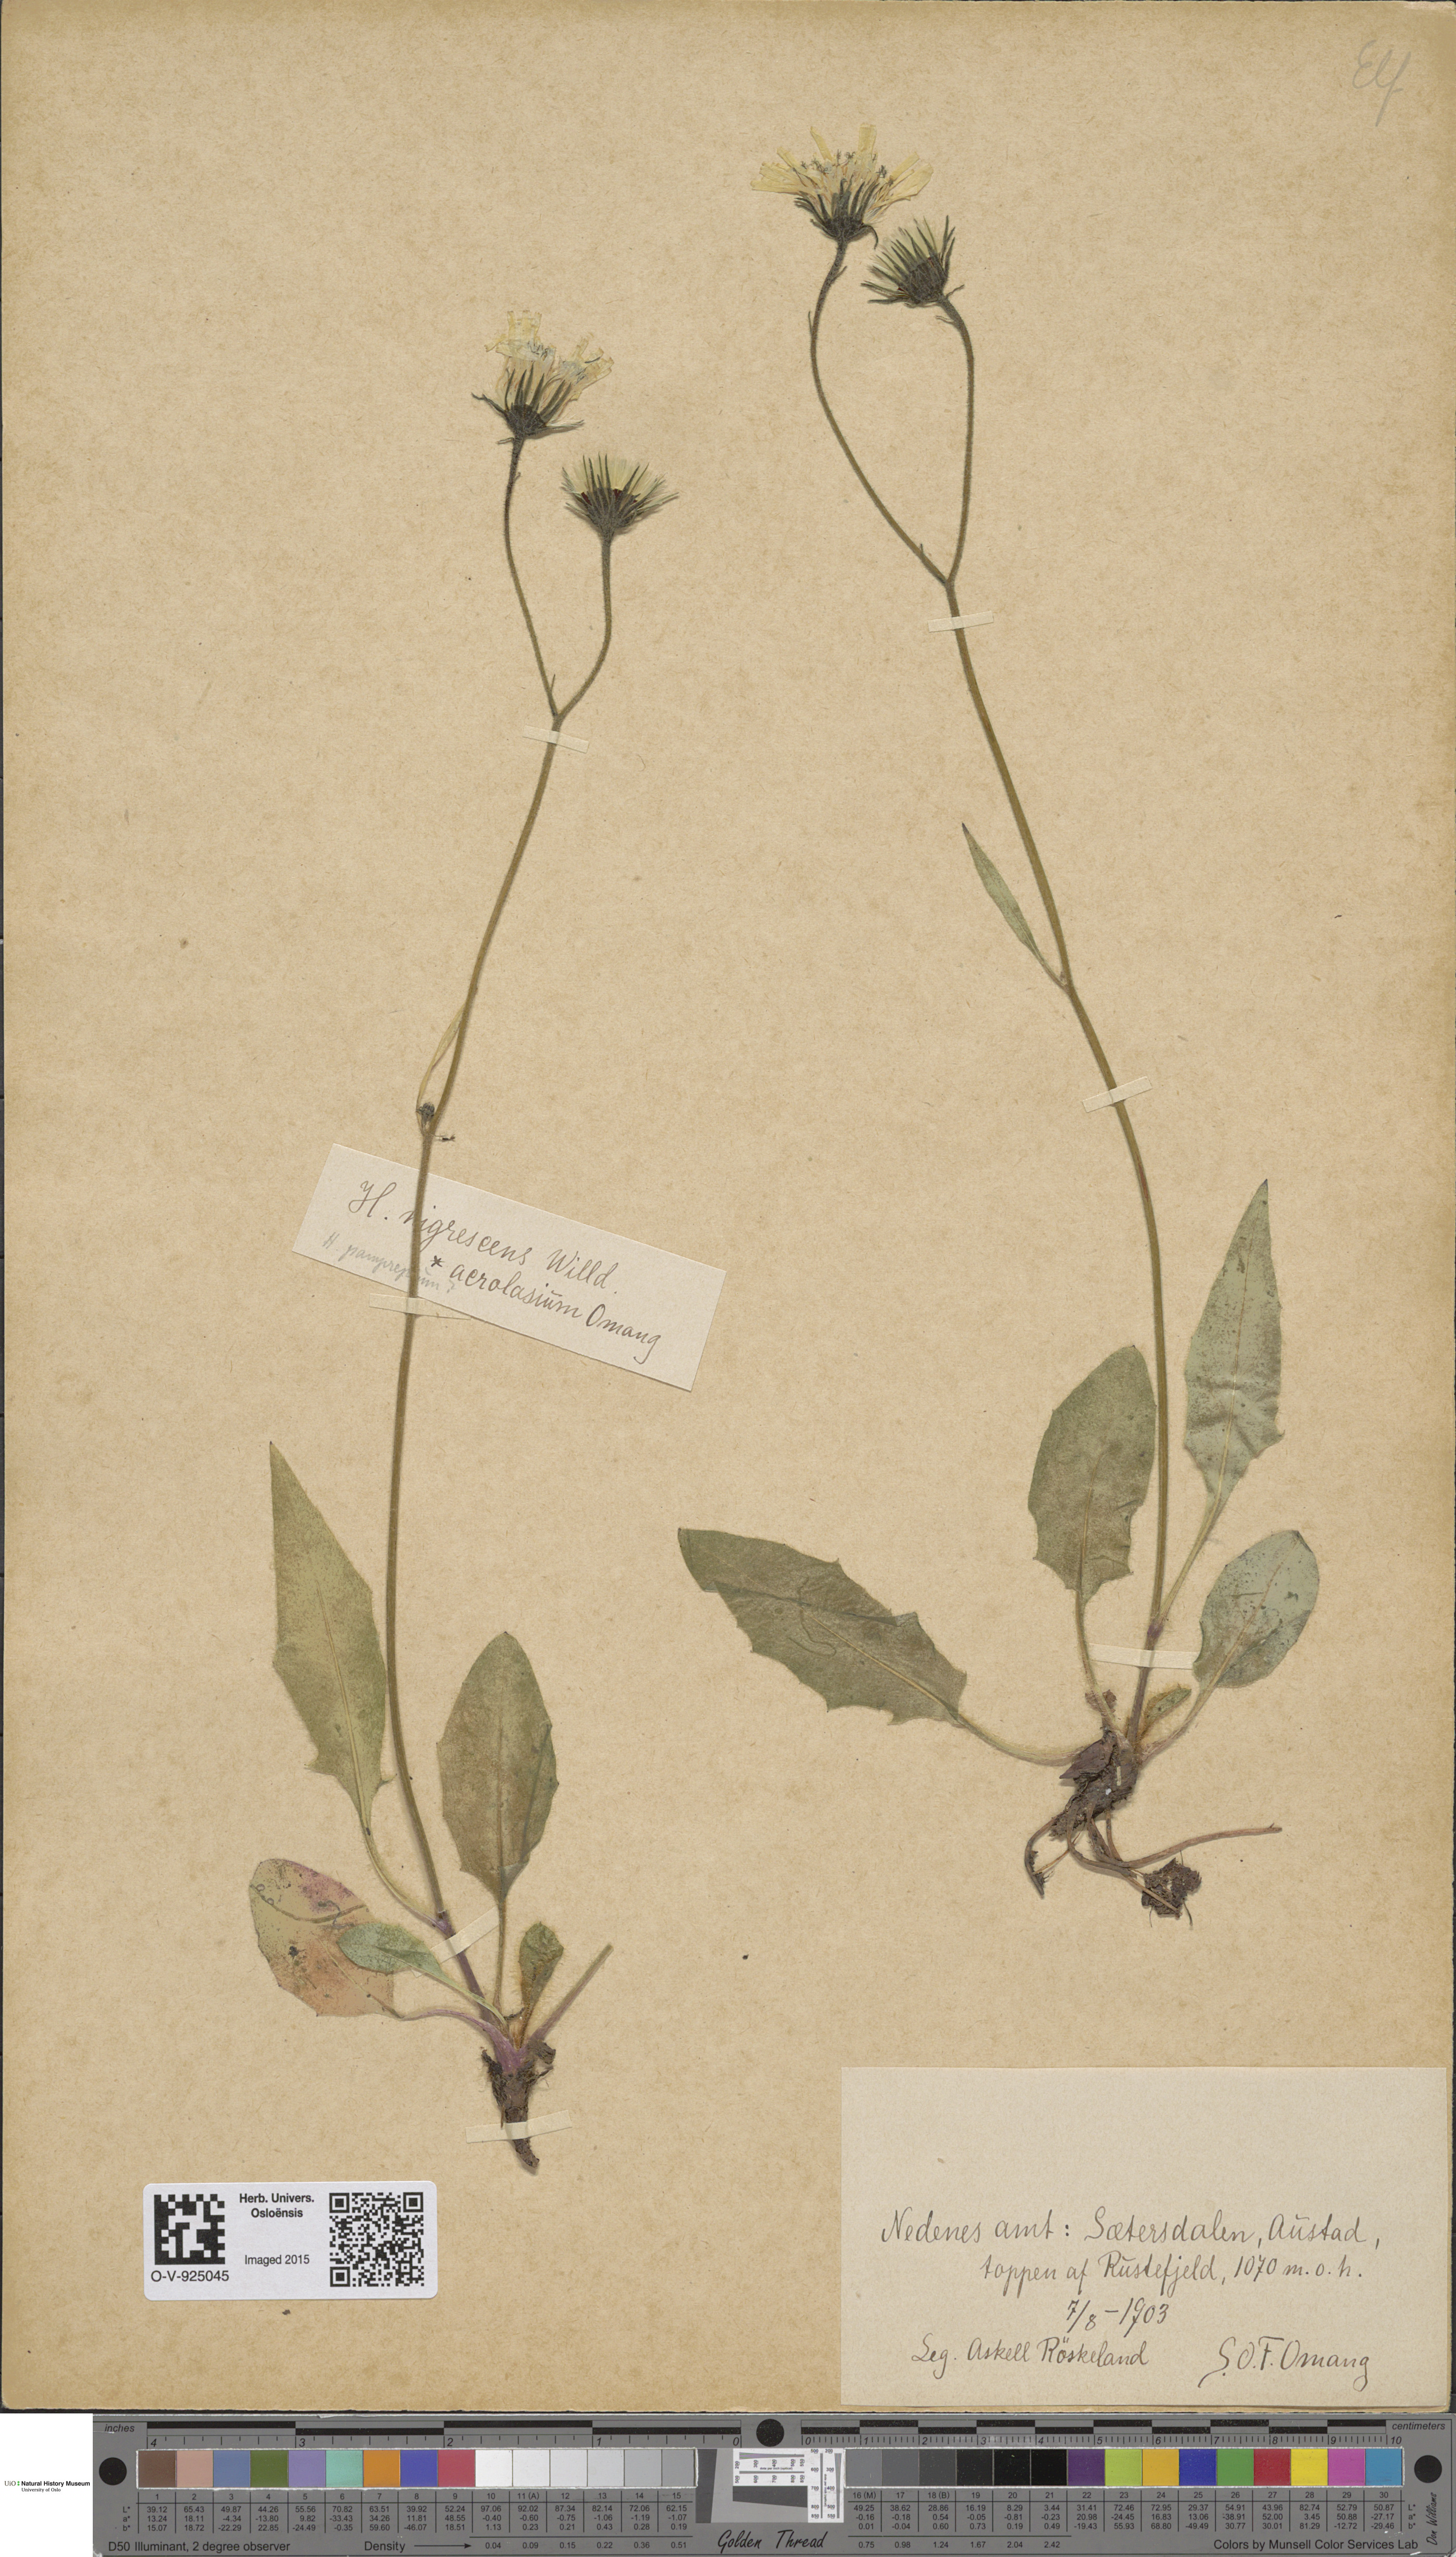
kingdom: Plantae
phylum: Tracheophyta
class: Magnoliopsida
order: Asterales
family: Asteraceae
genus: Hieracium
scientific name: Hieracium nigrescens
